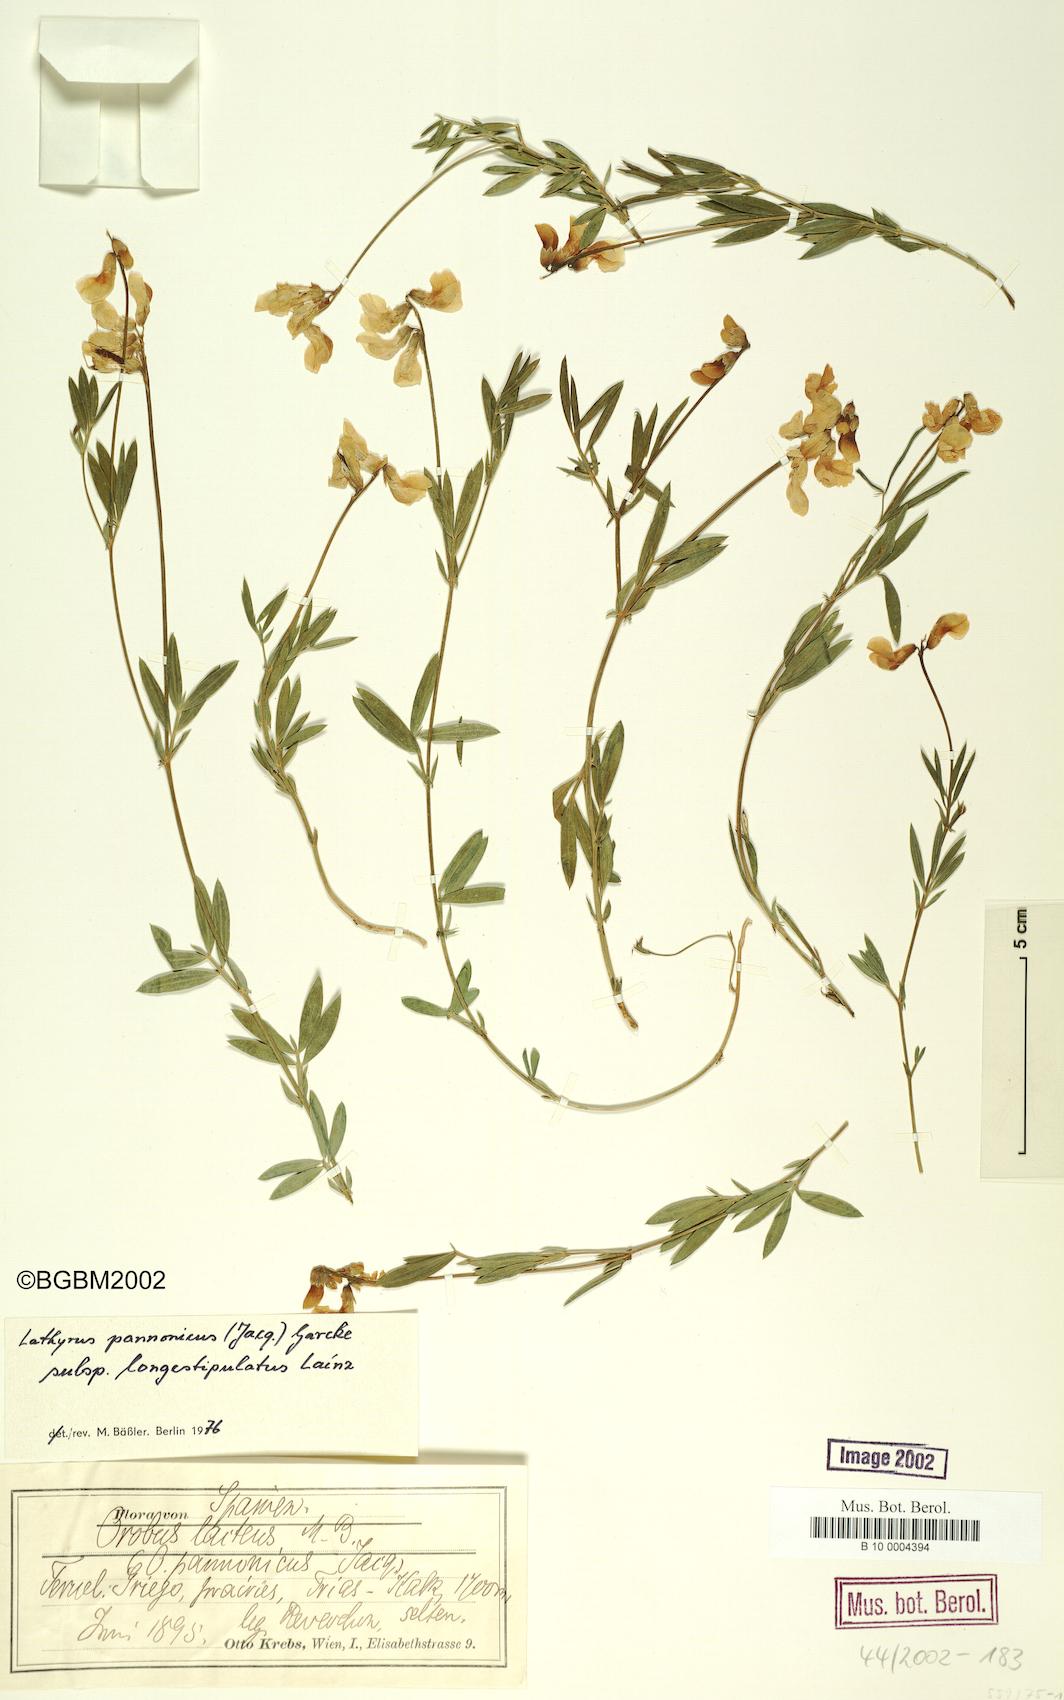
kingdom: Plantae
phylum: Tracheophyta
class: Magnoliopsida
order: Fabales
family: Fabaceae
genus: Lathyrus
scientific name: Lathyrus pannonicus
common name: Pea
